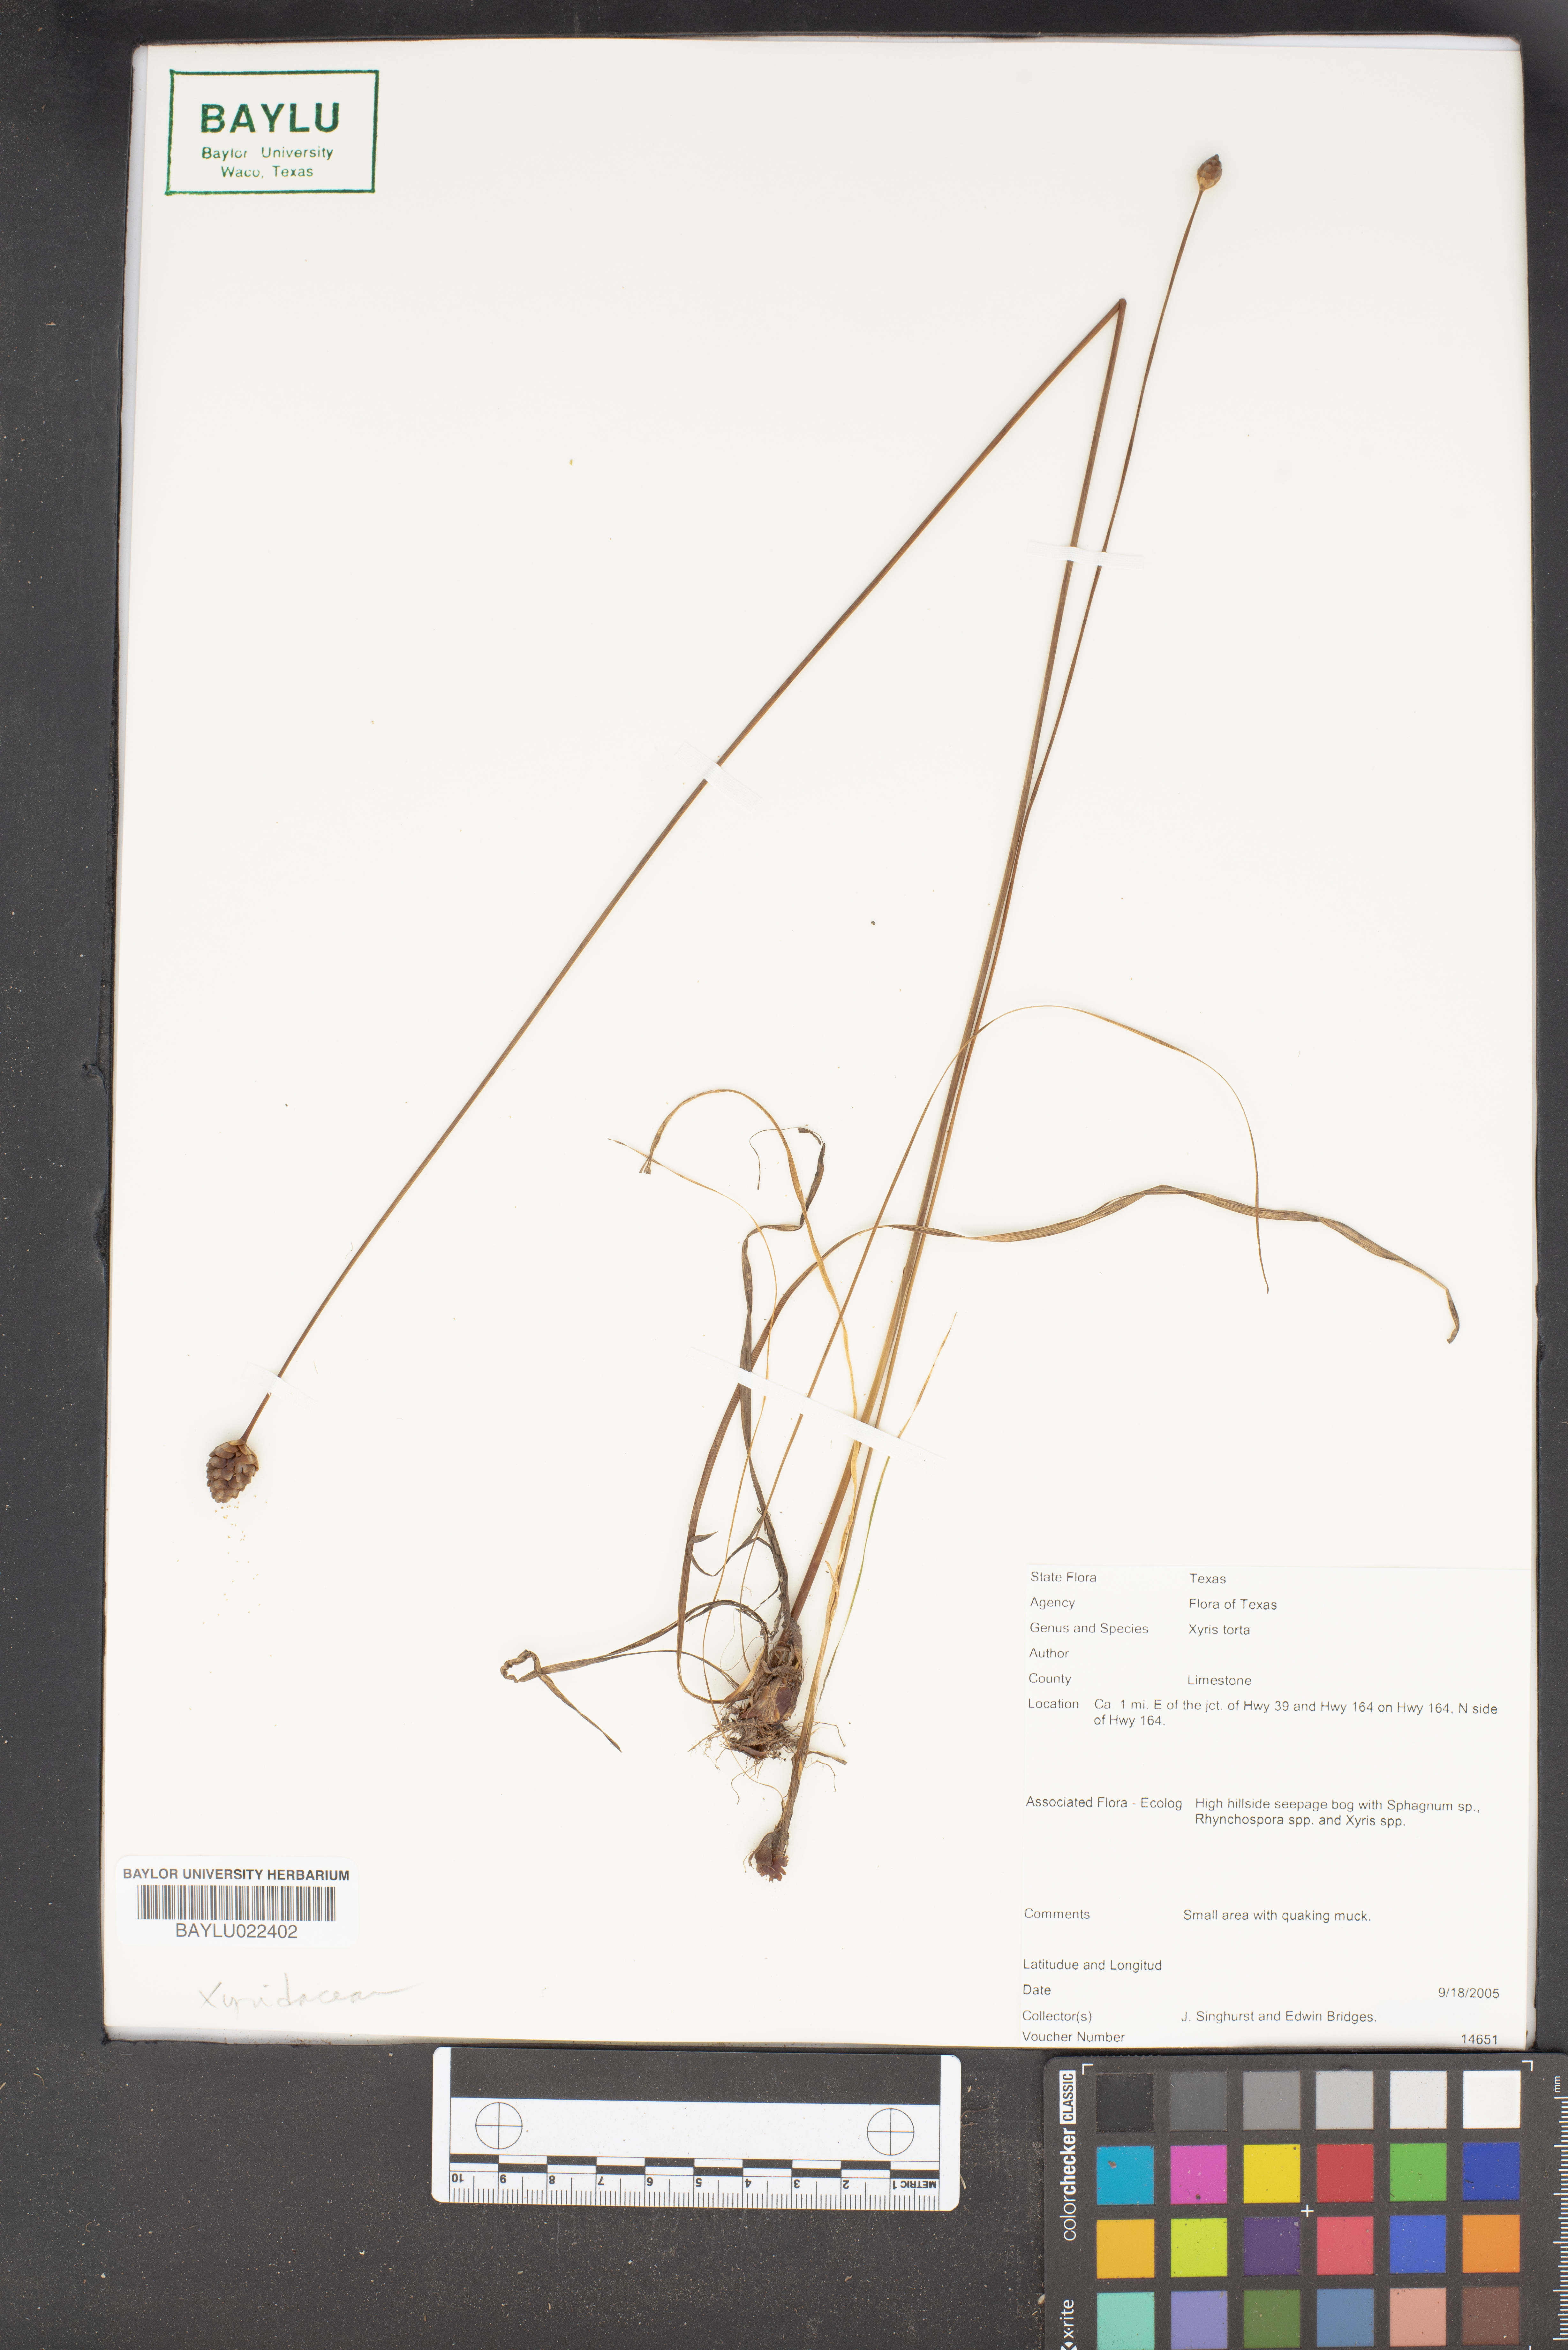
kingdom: Plantae
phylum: Tracheophyta
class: Liliopsida
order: Poales
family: Xyridaceae
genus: Xyris
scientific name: Xyris torta
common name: Common yelloweyed grass
